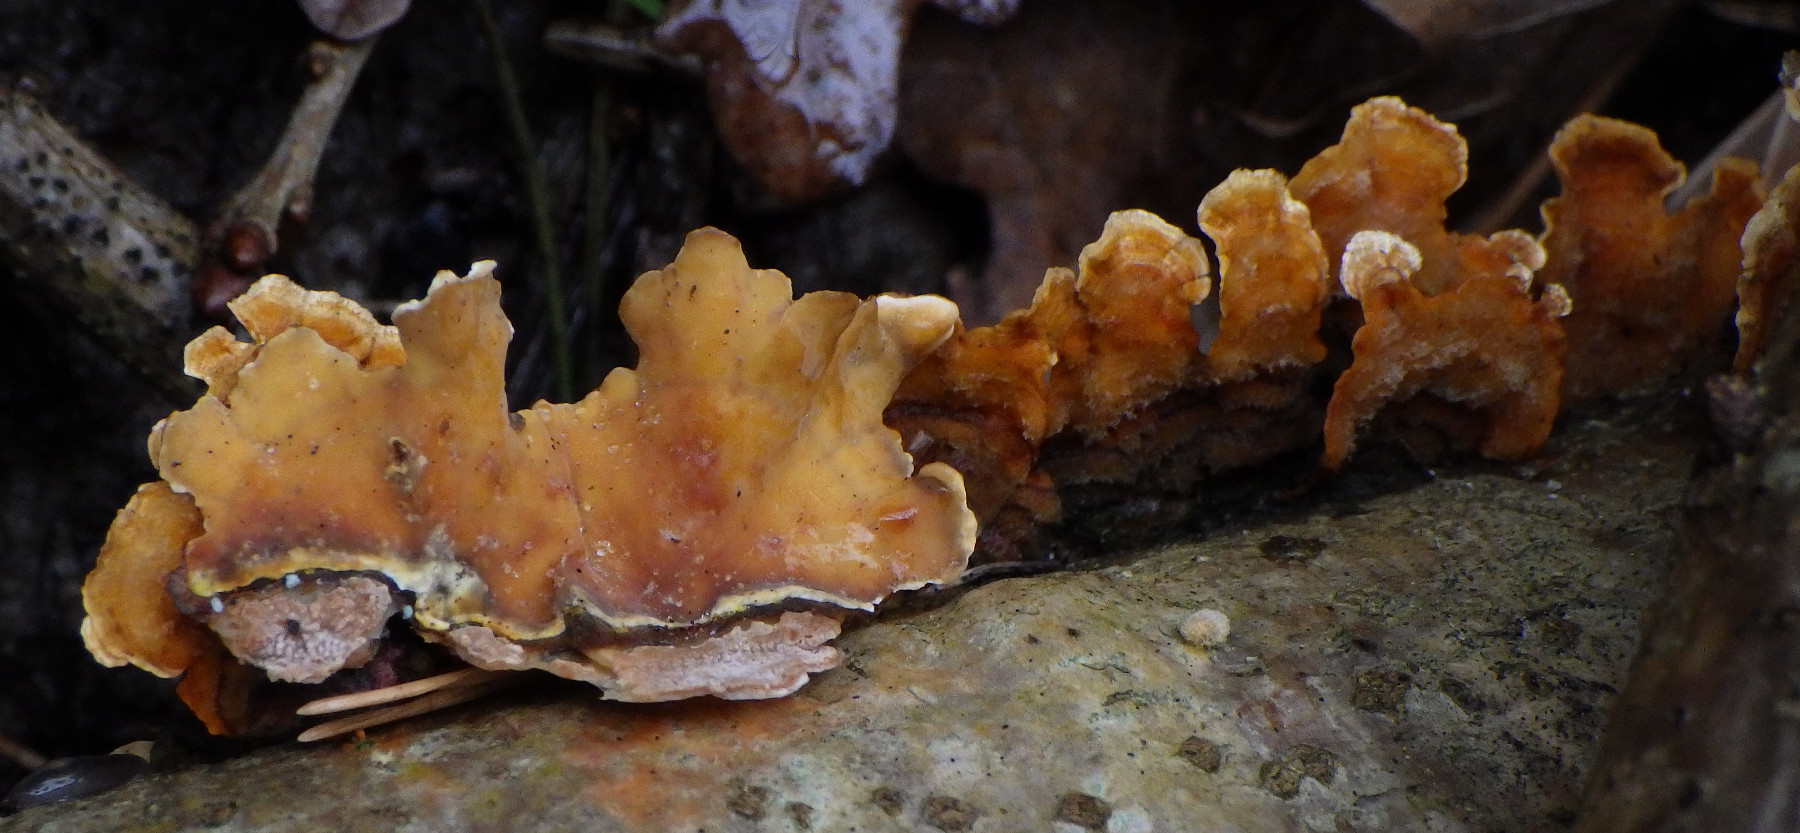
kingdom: Fungi
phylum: Basidiomycota
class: Agaricomycetes
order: Russulales
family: Stereaceae
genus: Stereum
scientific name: Stereum hirsutum
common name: håret lædersvamp
